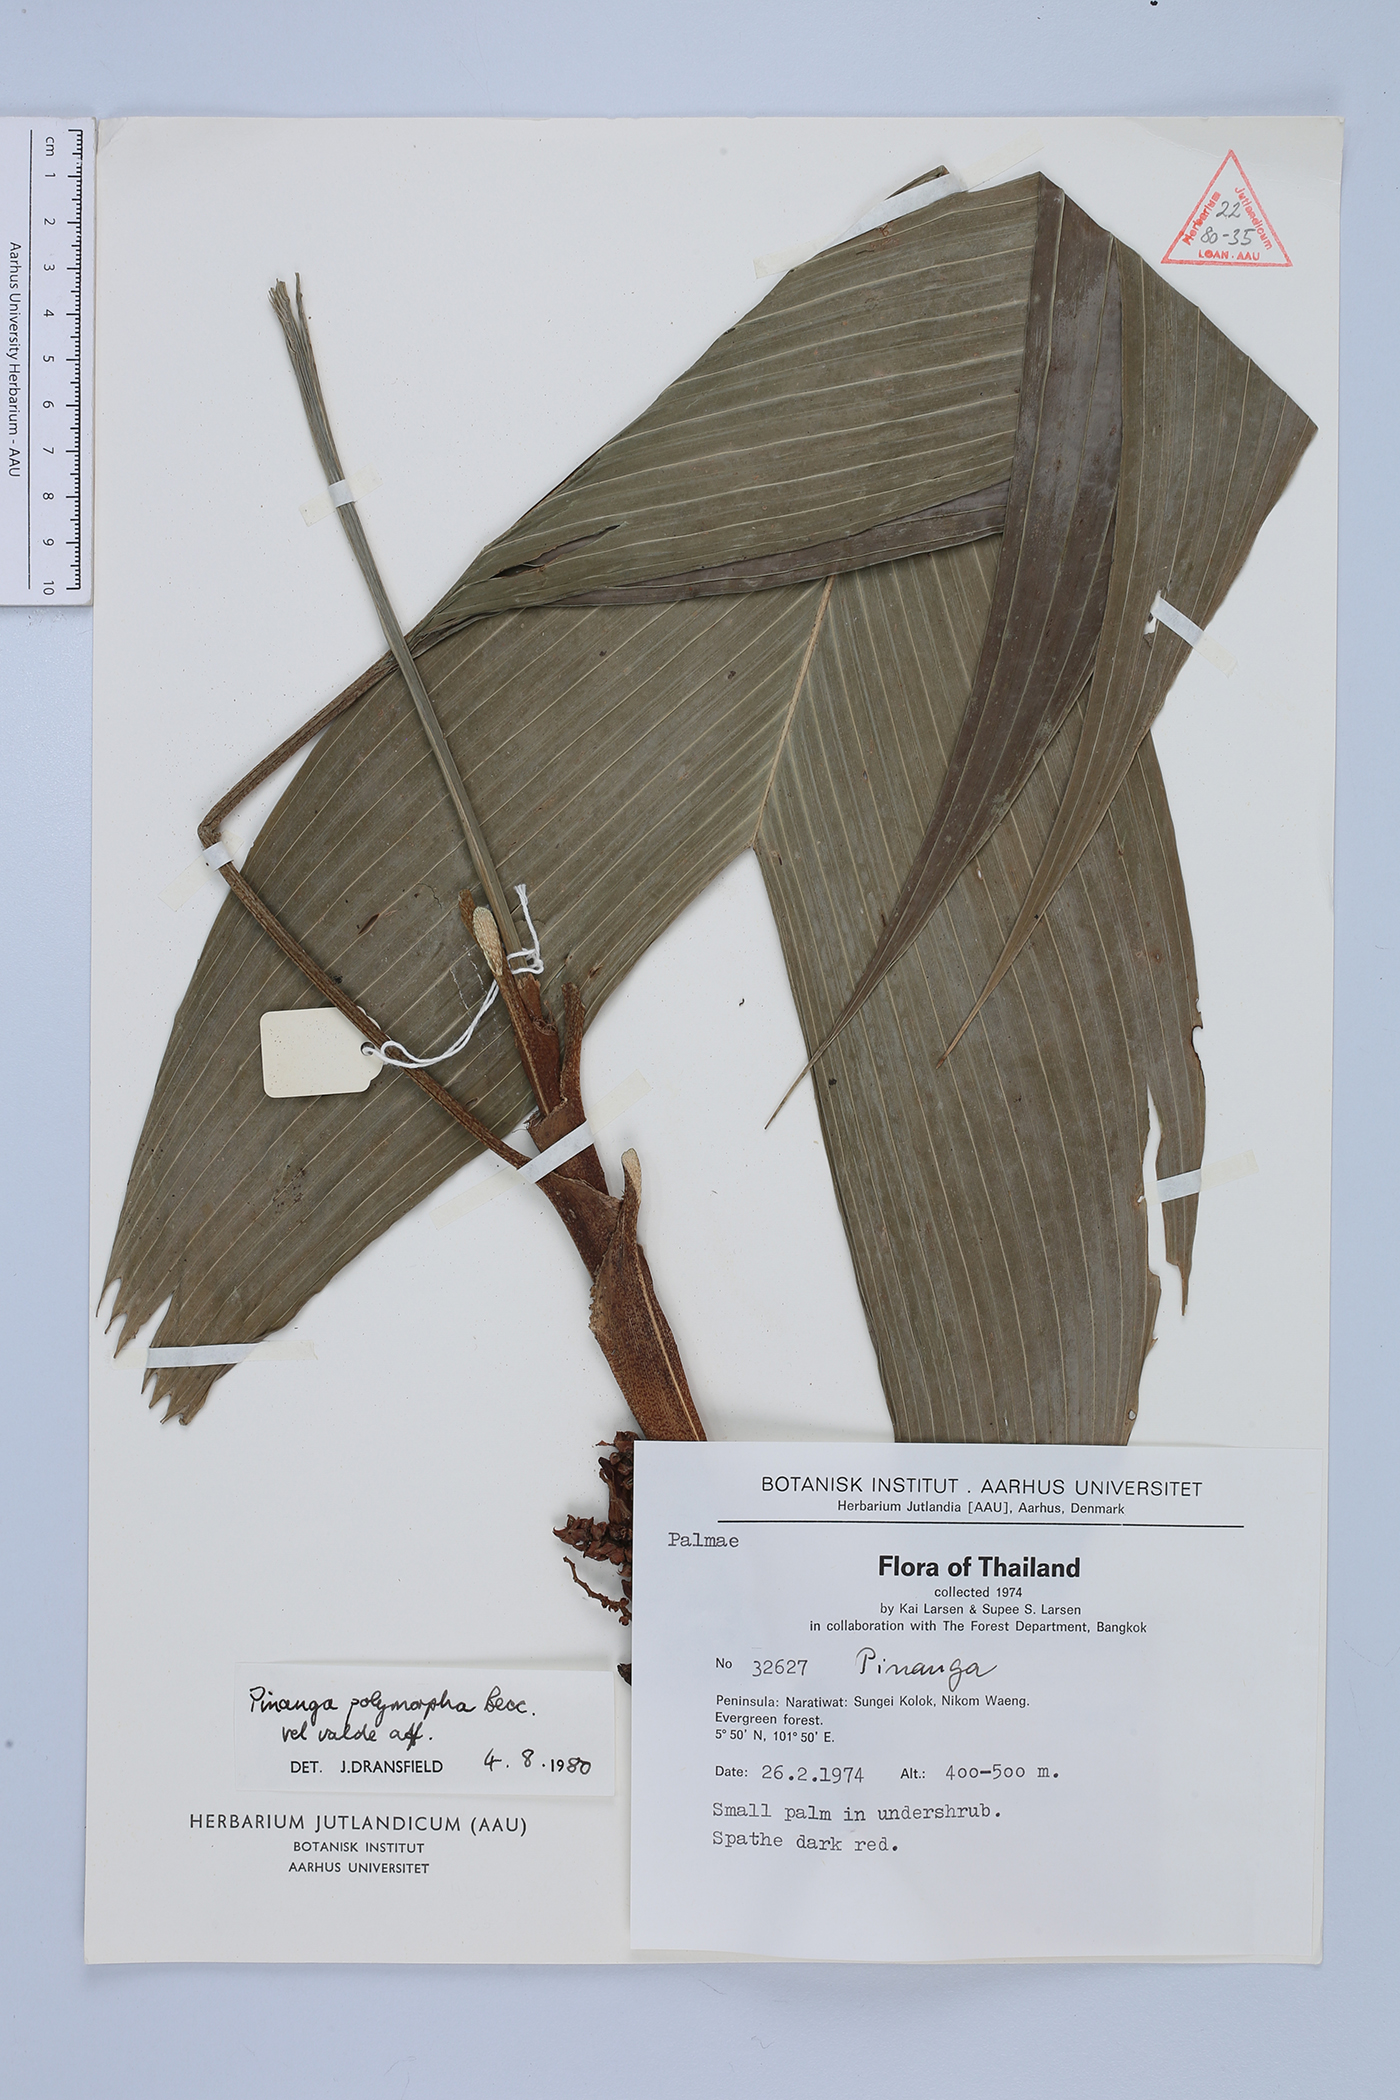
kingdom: Plantae
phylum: Tracheophyta
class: Liliopsida
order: Arecales
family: Arecaceae
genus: Pinanga
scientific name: Pinanga polymorpha
